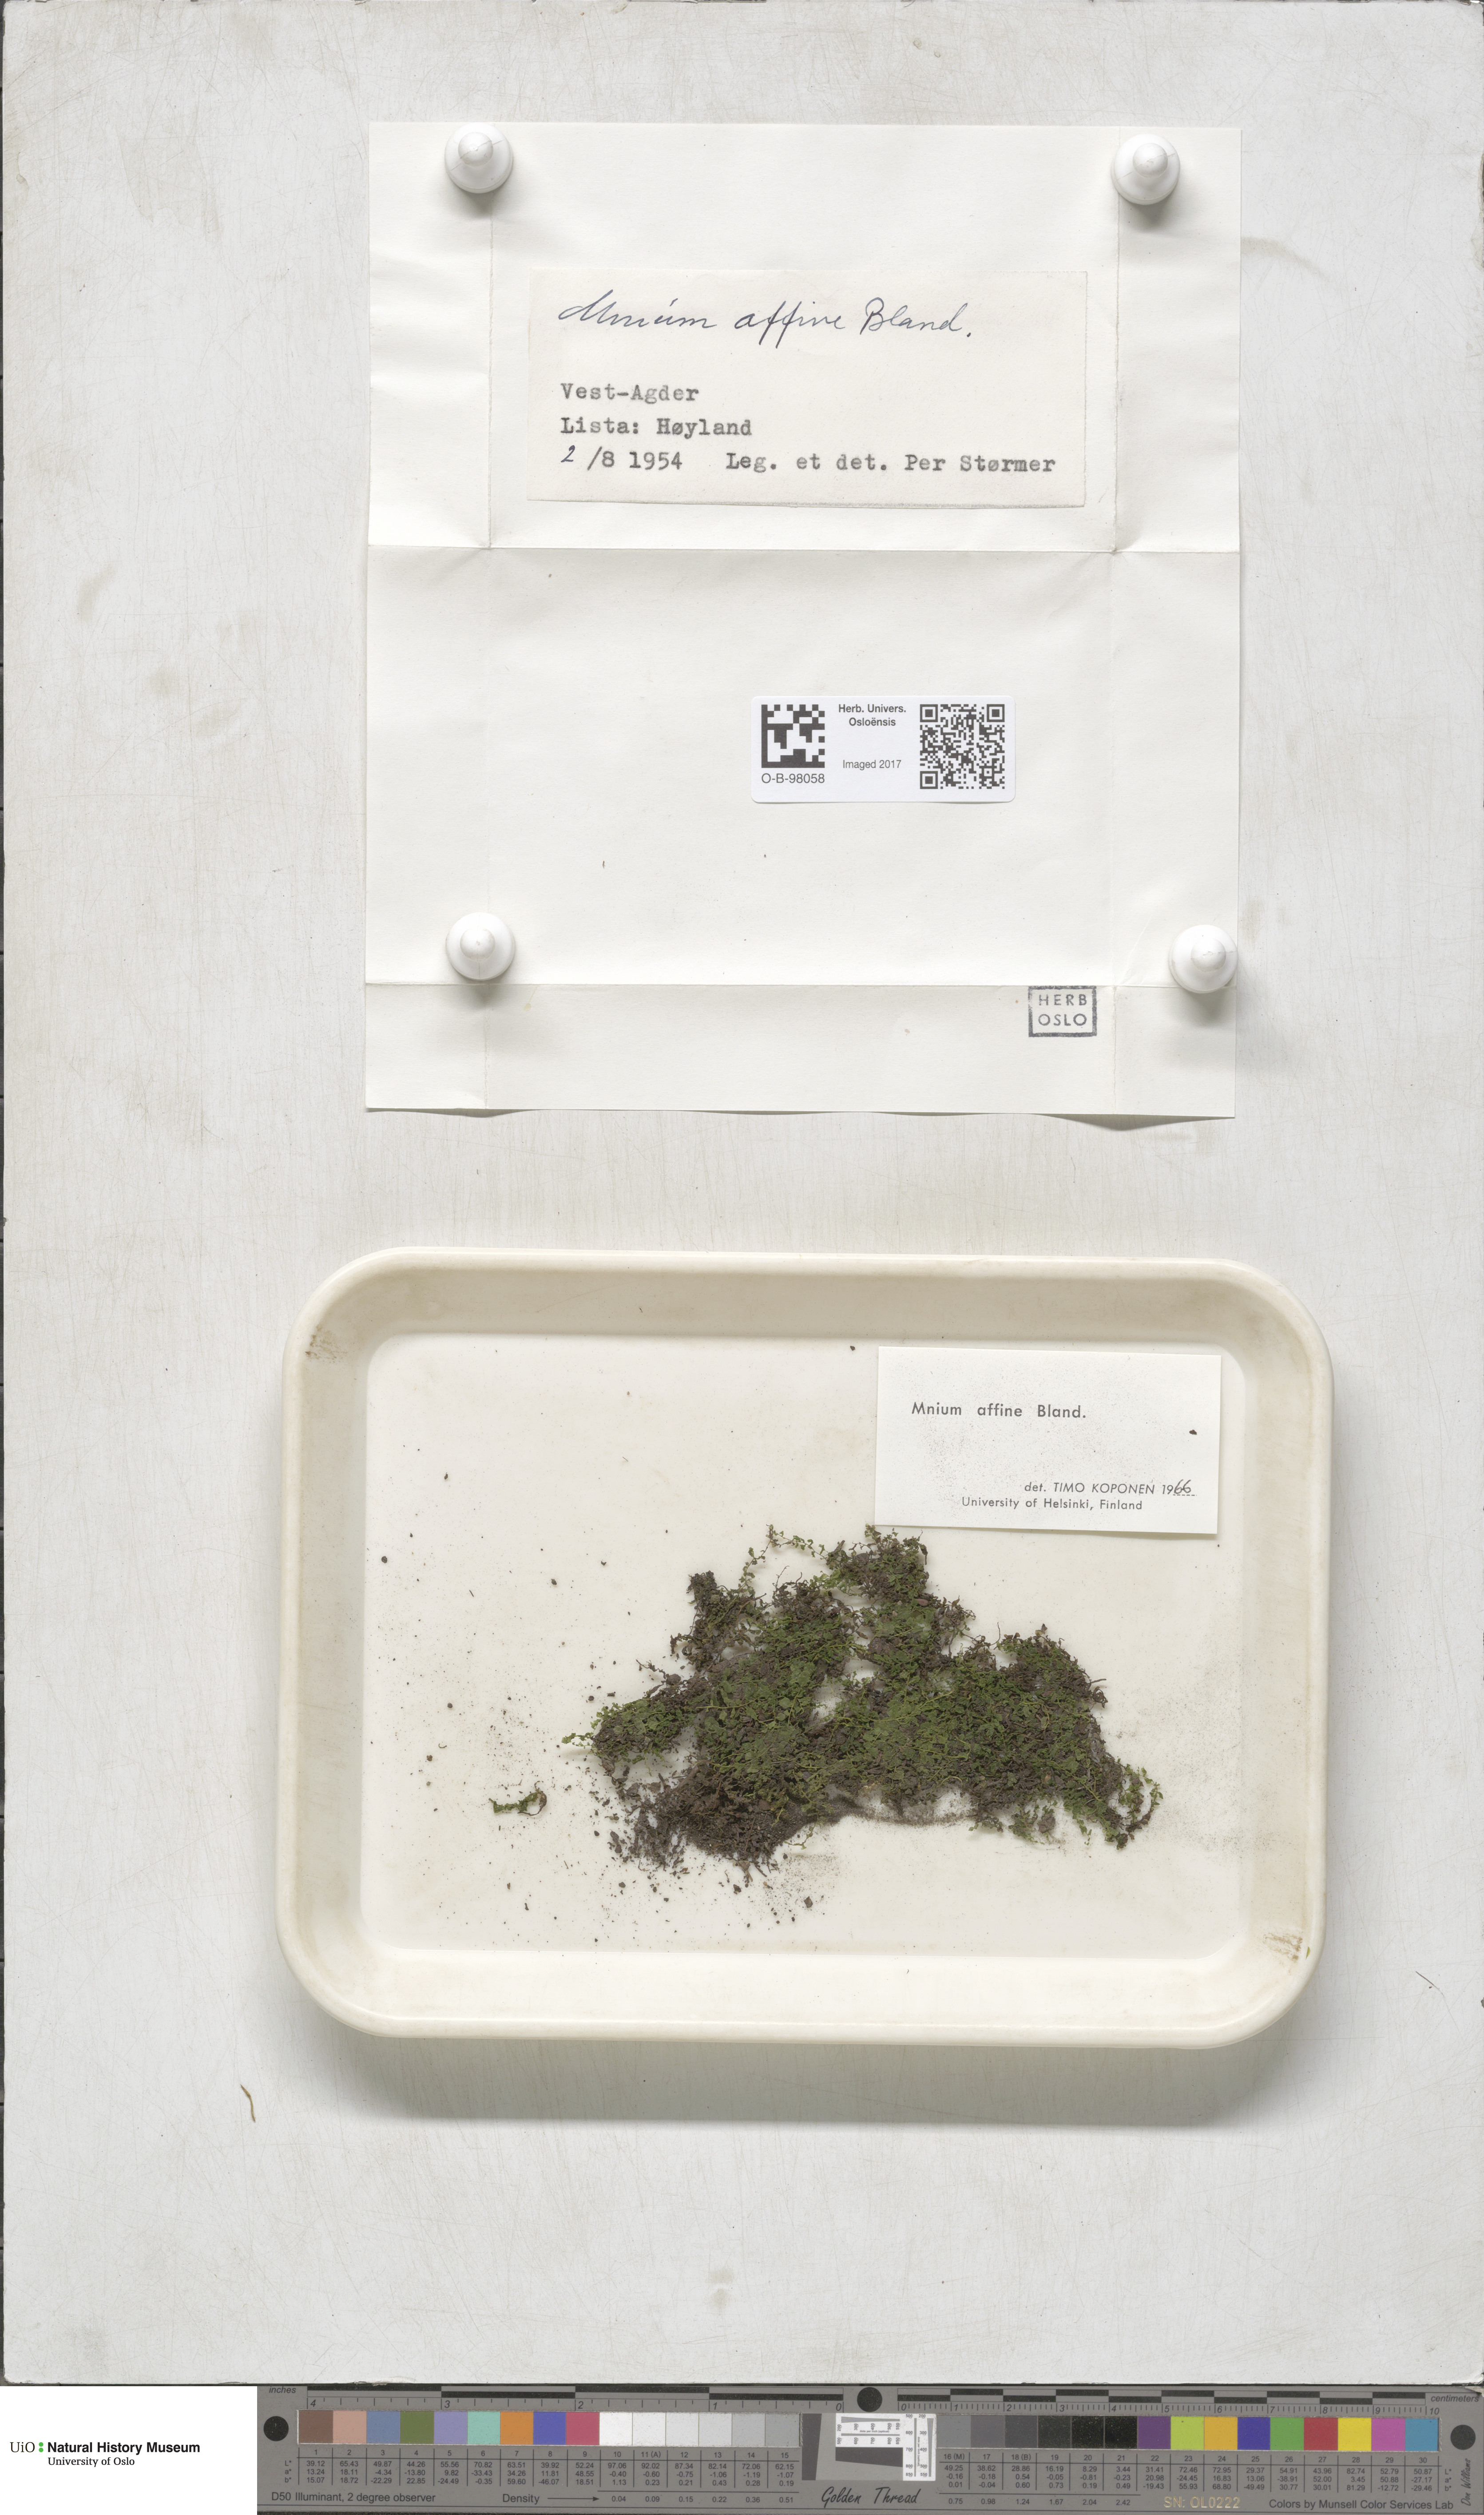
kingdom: Plantae
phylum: Bryophyta
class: Bryopsida
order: Bryales
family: Mniaceae
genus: Plagiomnium
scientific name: Plagiomnium affine
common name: Many-fruited thyme-moss
